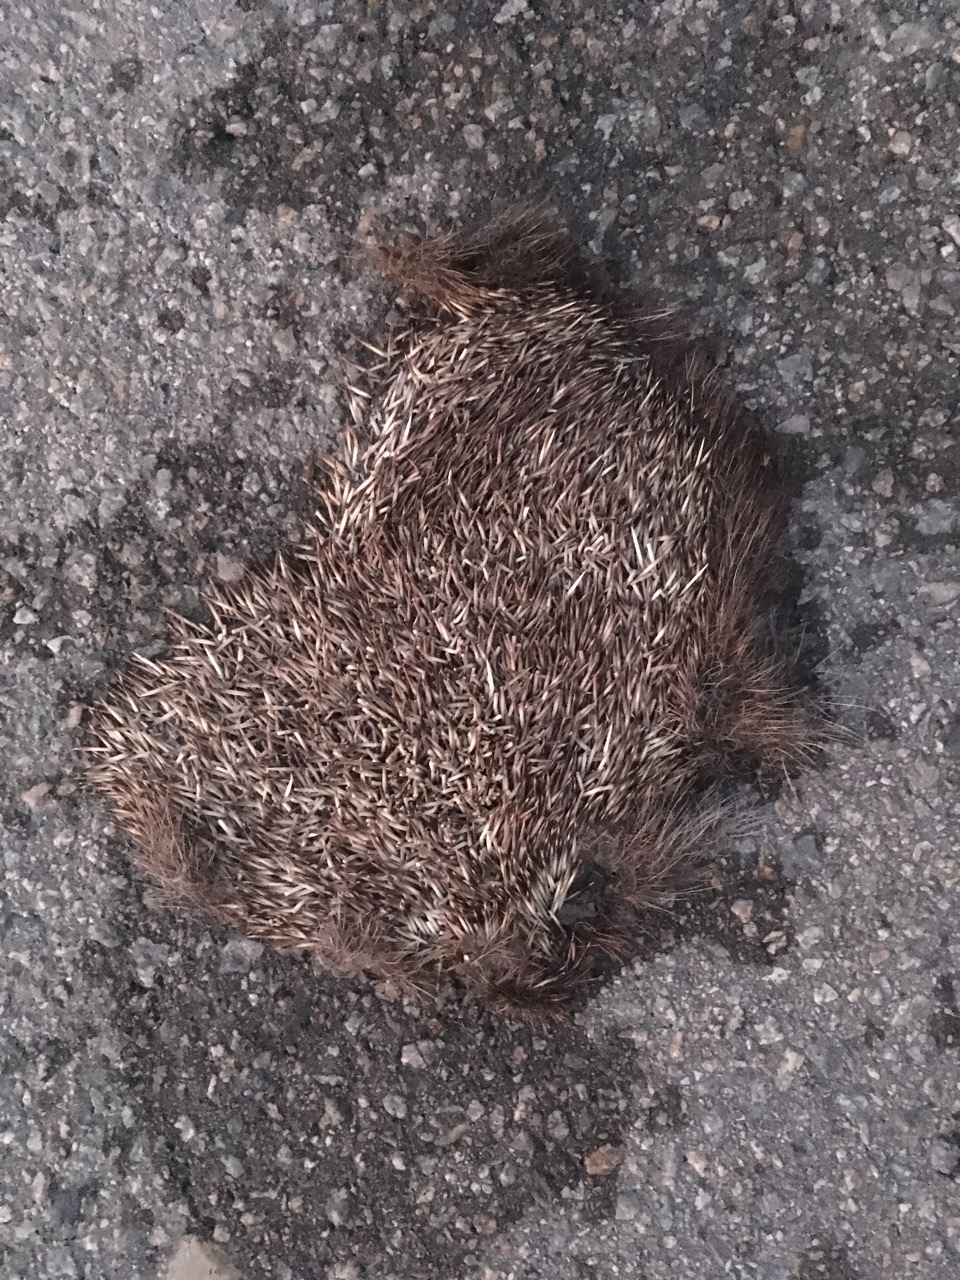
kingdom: Animalia
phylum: Chordata
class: Mammalia
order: Erinaceomorpha
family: Erinaceidae
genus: Erinaceus
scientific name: Erinaceus
